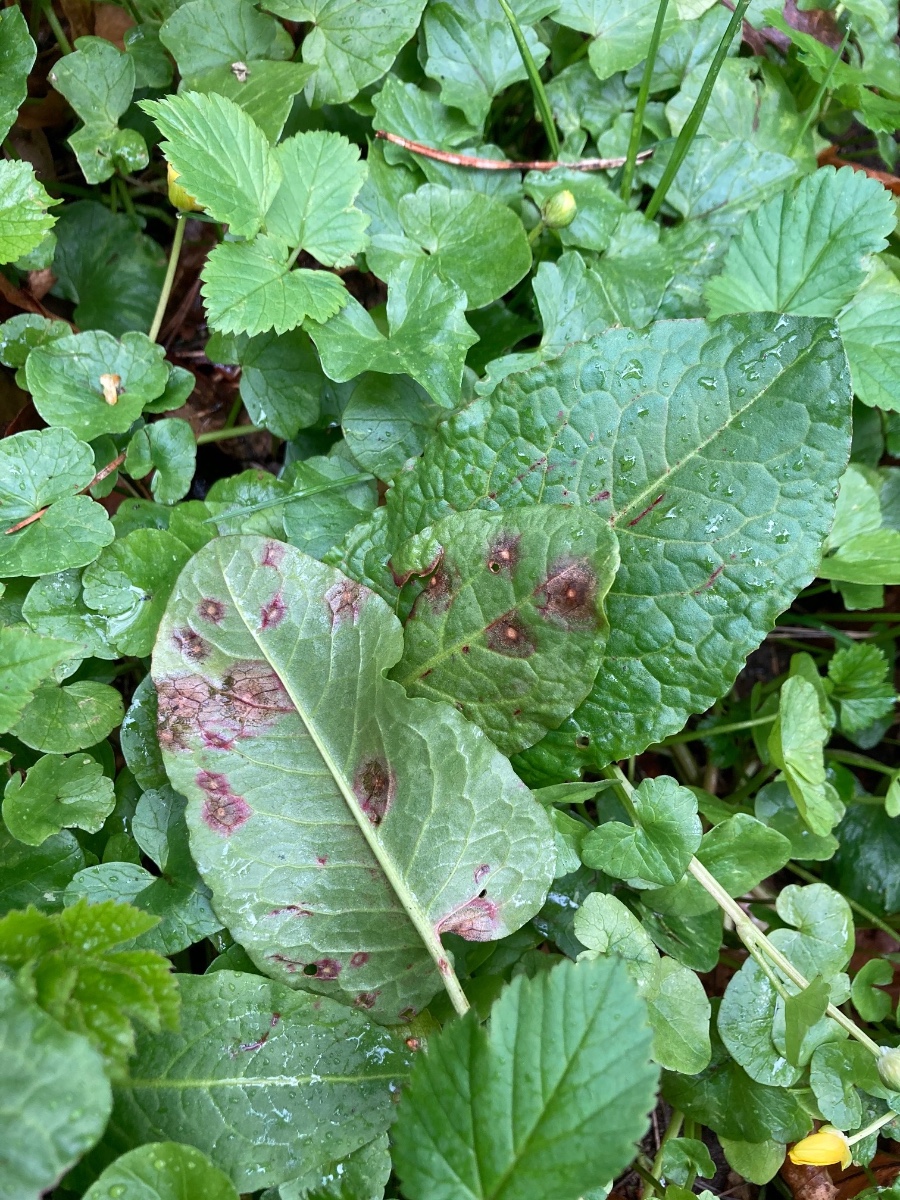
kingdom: Fungi
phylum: Ascomycota
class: Dothideomycetes
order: Mycosphaerellales
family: Mycosphaerellaceae
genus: Ramularia
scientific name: Ramularia rubella
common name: Red dock spot
